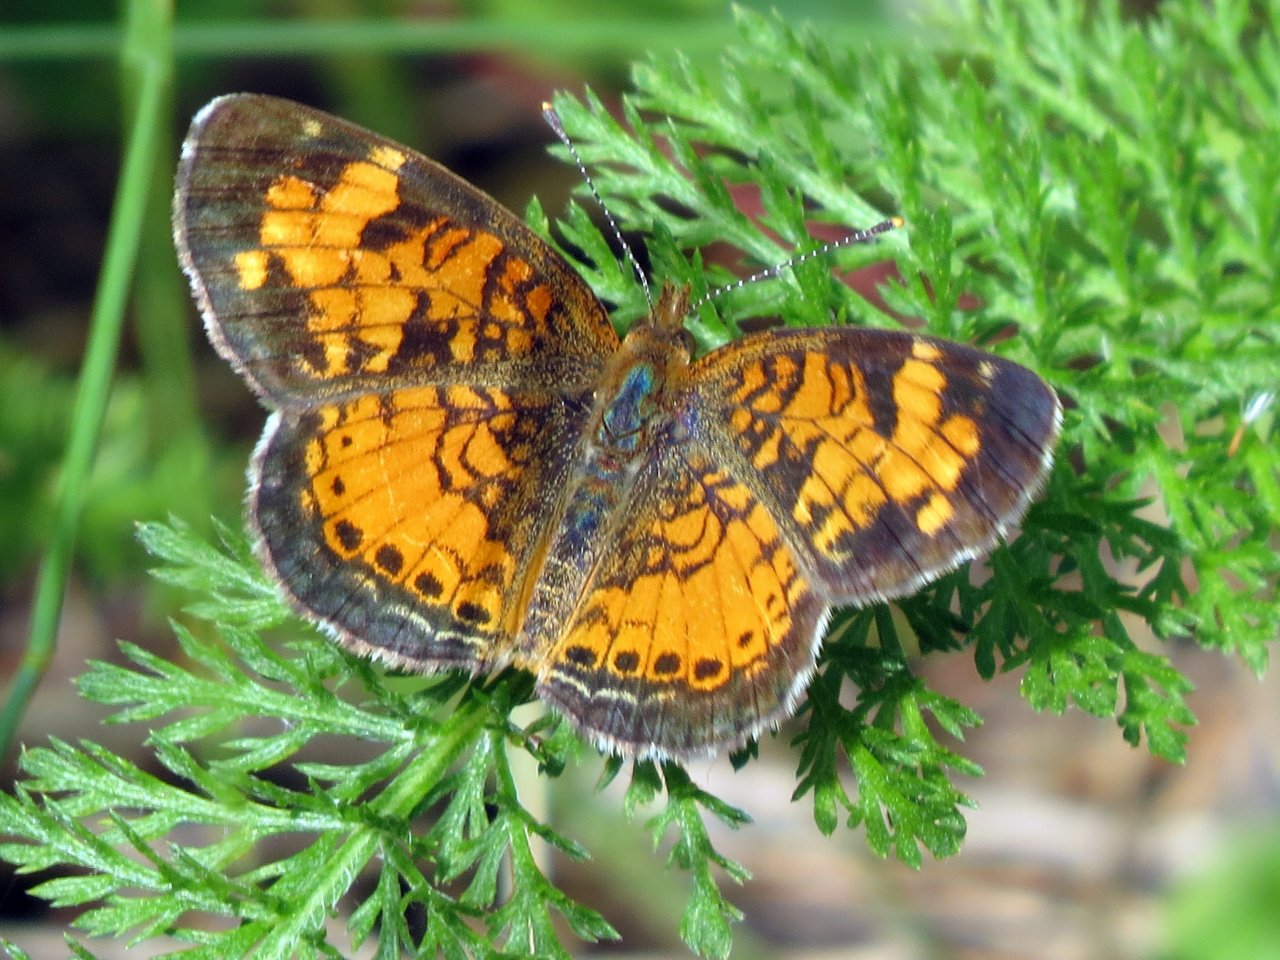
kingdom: Animalia
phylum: Arthropoda
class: Insecta
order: Lepidoptera
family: Nymphalidae
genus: Phyciodes
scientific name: Phyciodes tharos
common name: Northern Crescent
